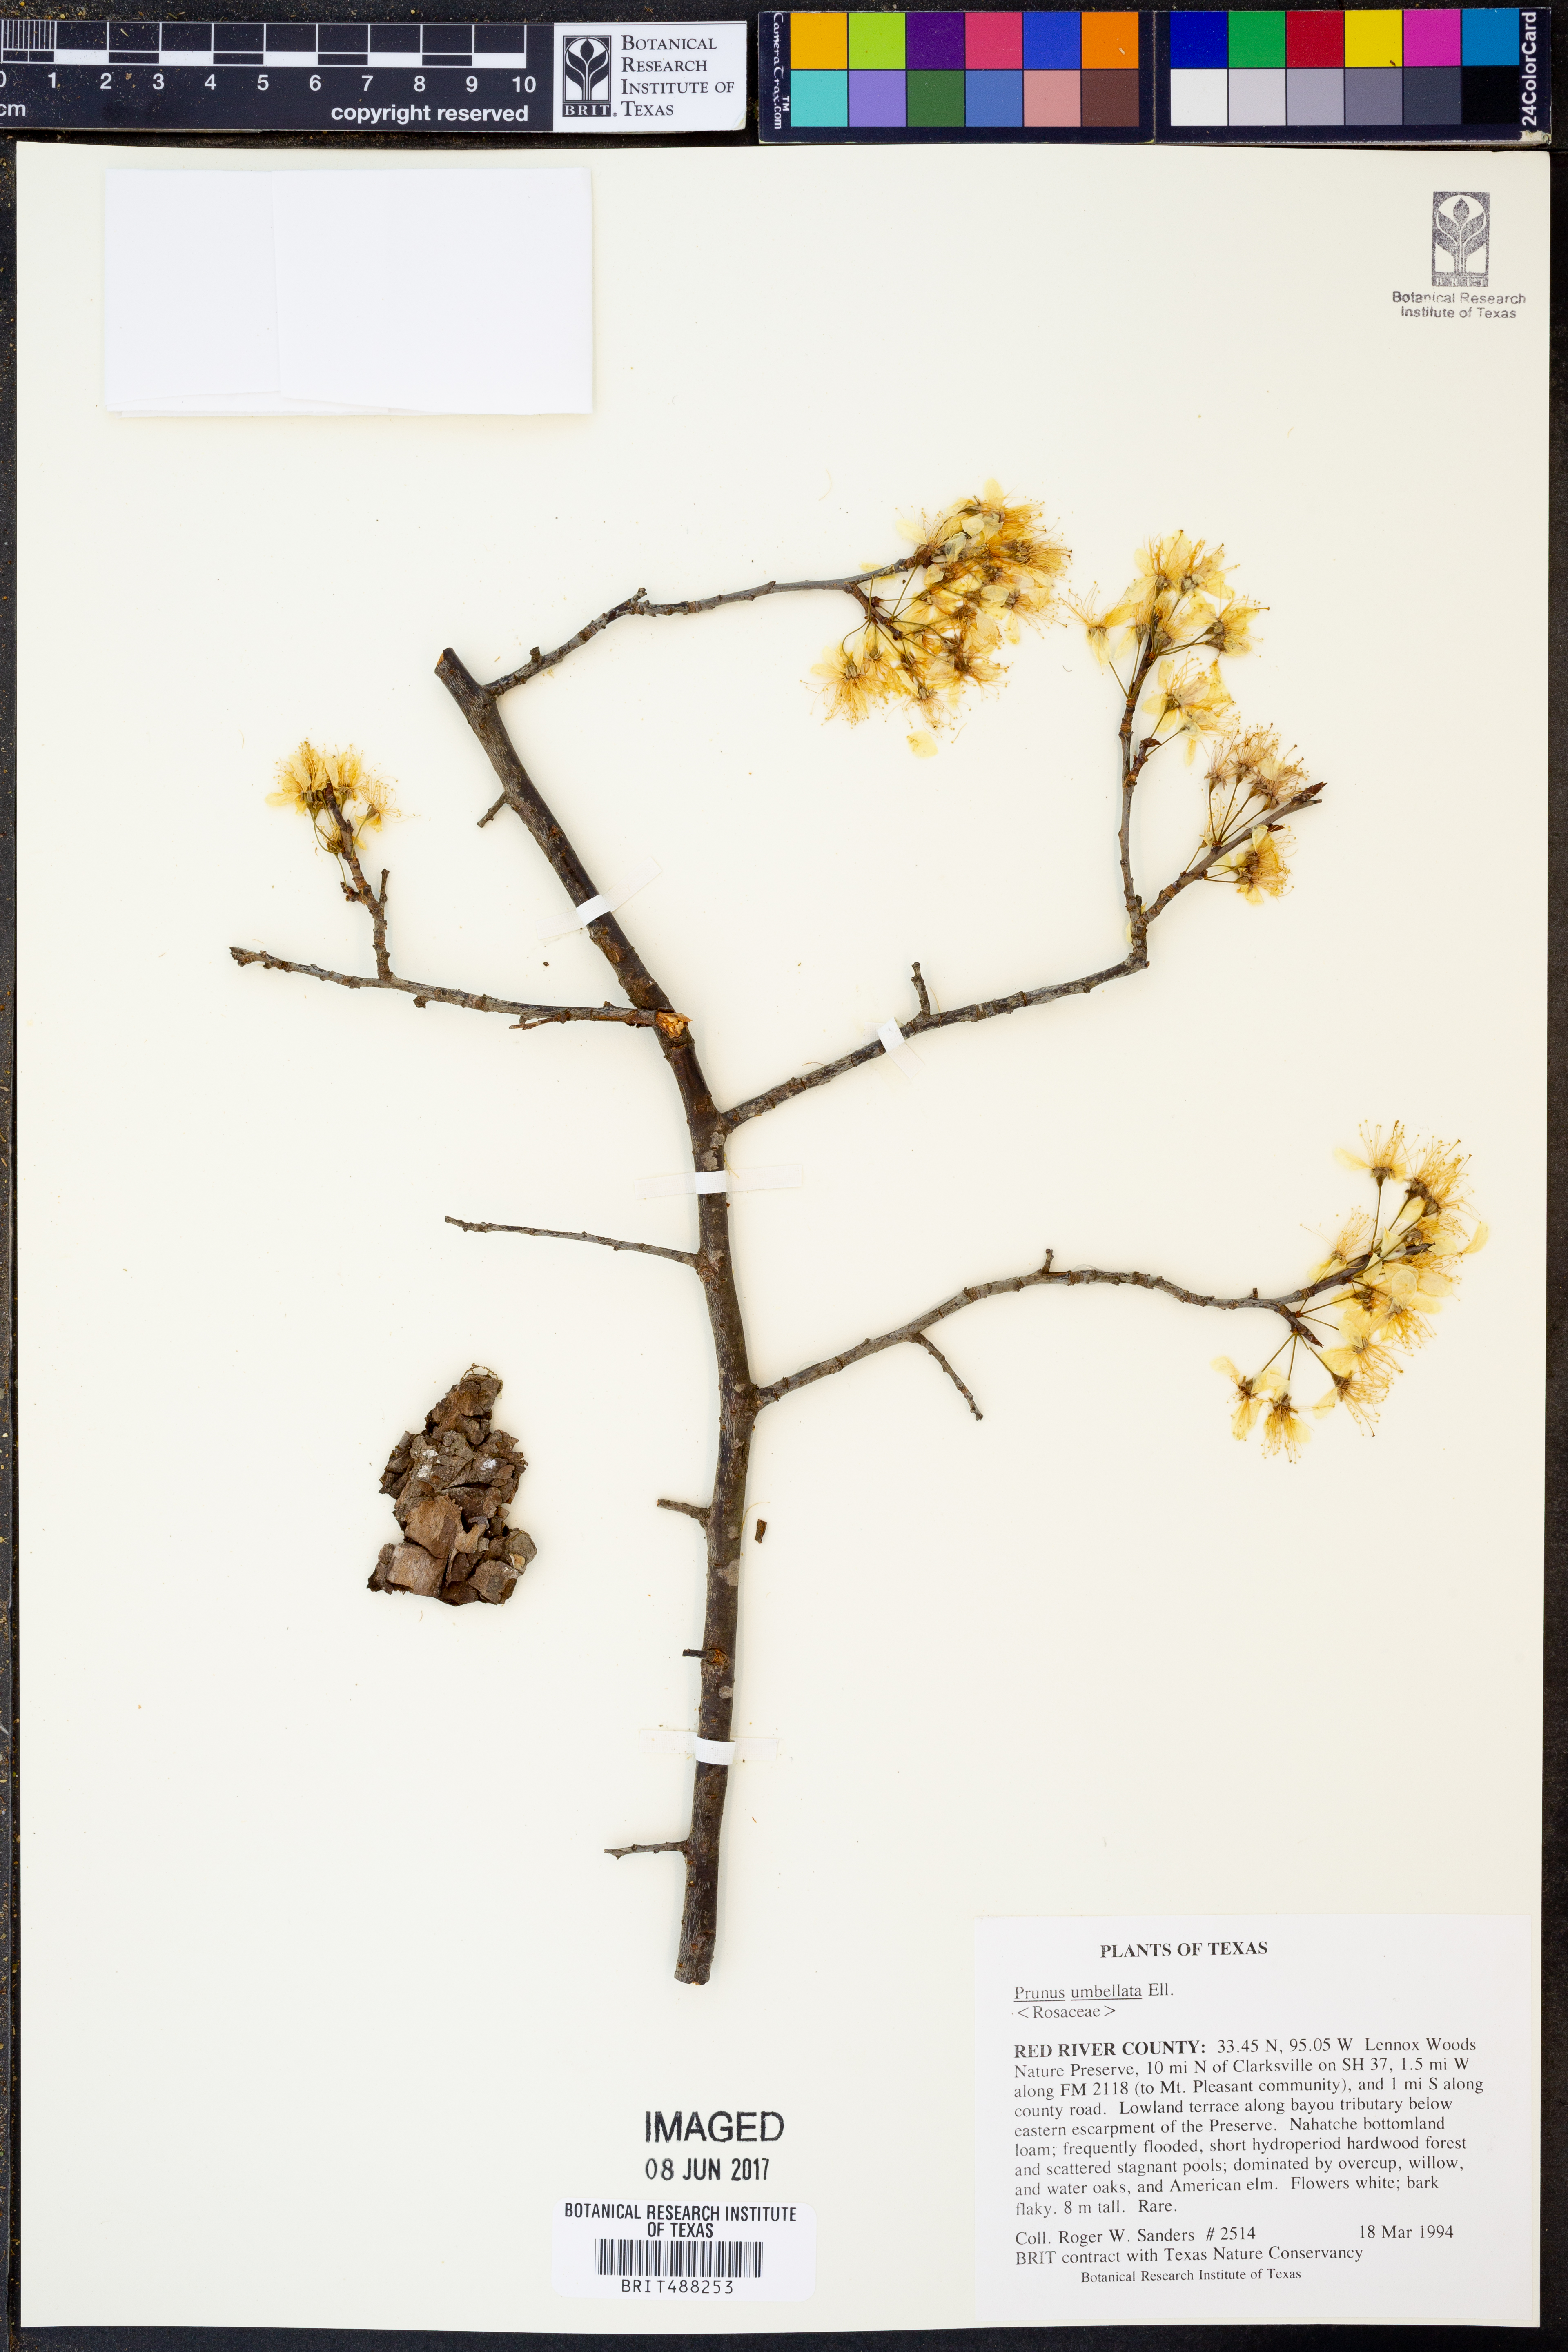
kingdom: Plantae
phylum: Tracheophyta
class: Magnoliopsida
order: Rosales
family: Rosaceae
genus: Prunus
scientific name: Prunus umbellata
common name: Allegheny plum
